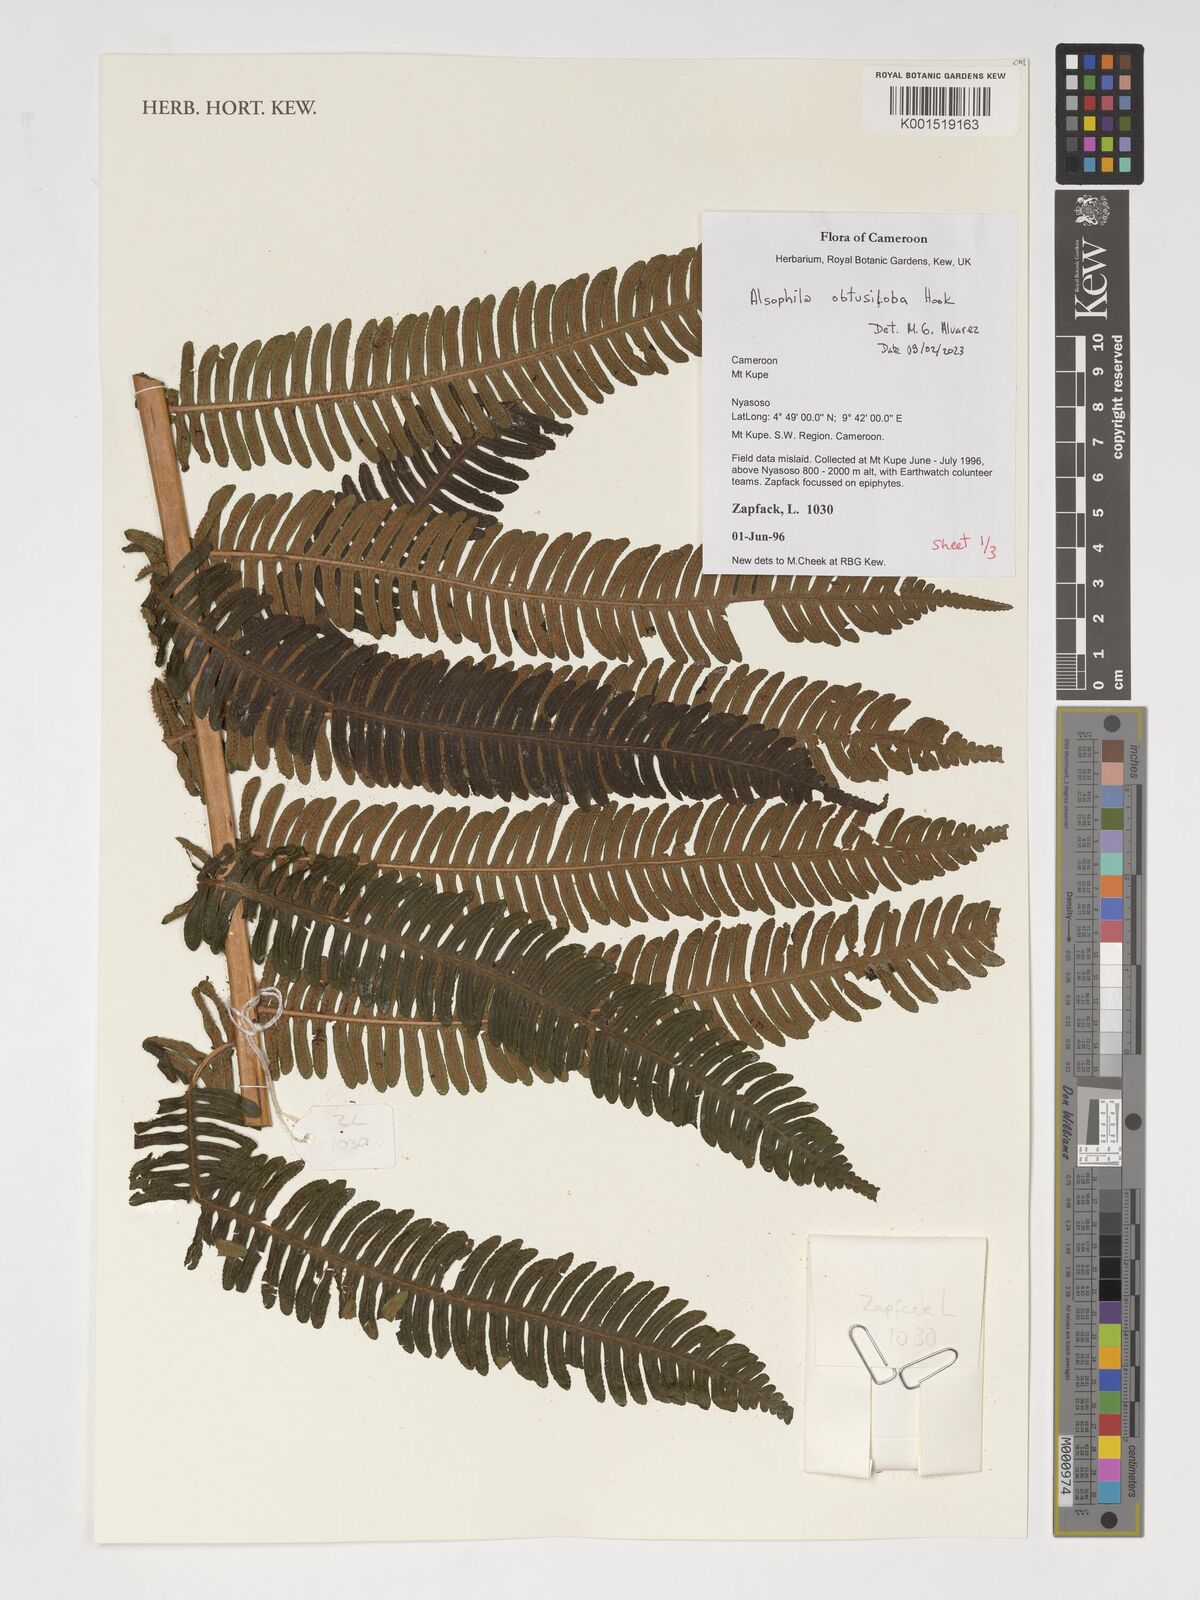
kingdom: Plantae
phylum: Tracheophyta
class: Polypodiopsida
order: Cyatheales
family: Cyatheaceae
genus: Alsophila
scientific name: Alsophila obtusiloba
